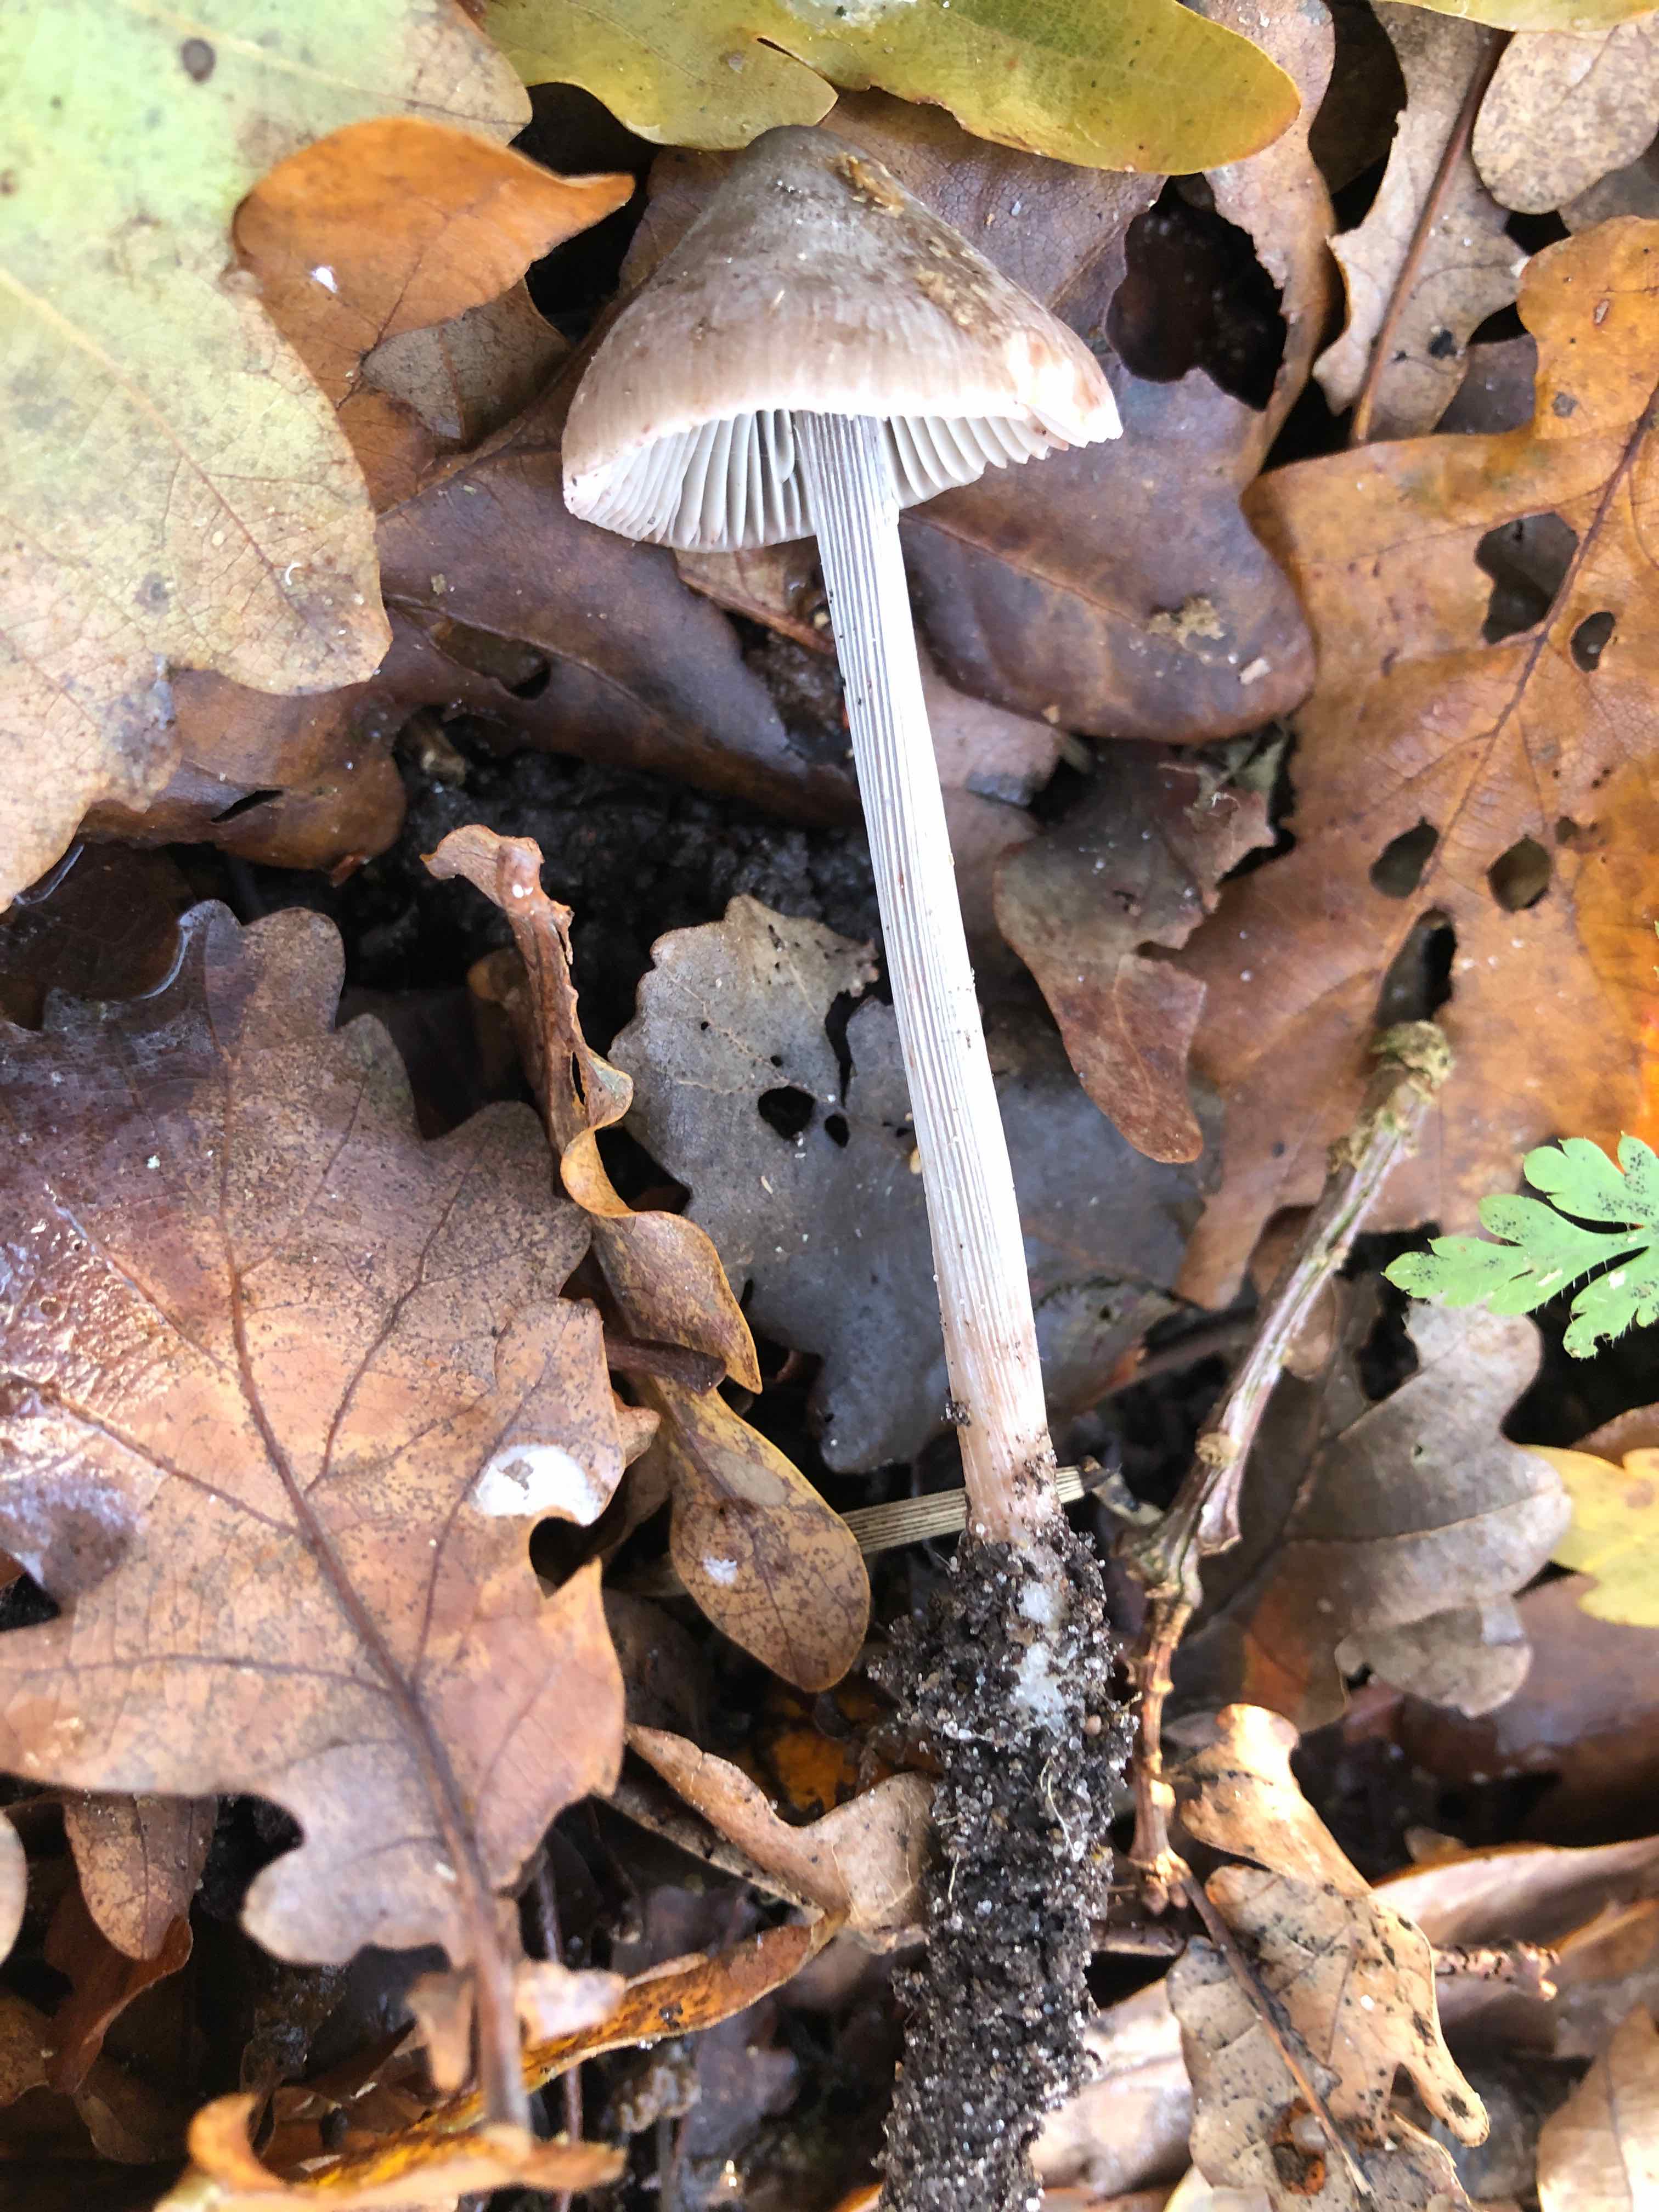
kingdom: Fungi
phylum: Basidiomycota
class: Agaricomycetes
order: Agaricales
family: Mycenaceae
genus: Mycena
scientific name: Mycena polygramma
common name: mangestribet huesvamp
